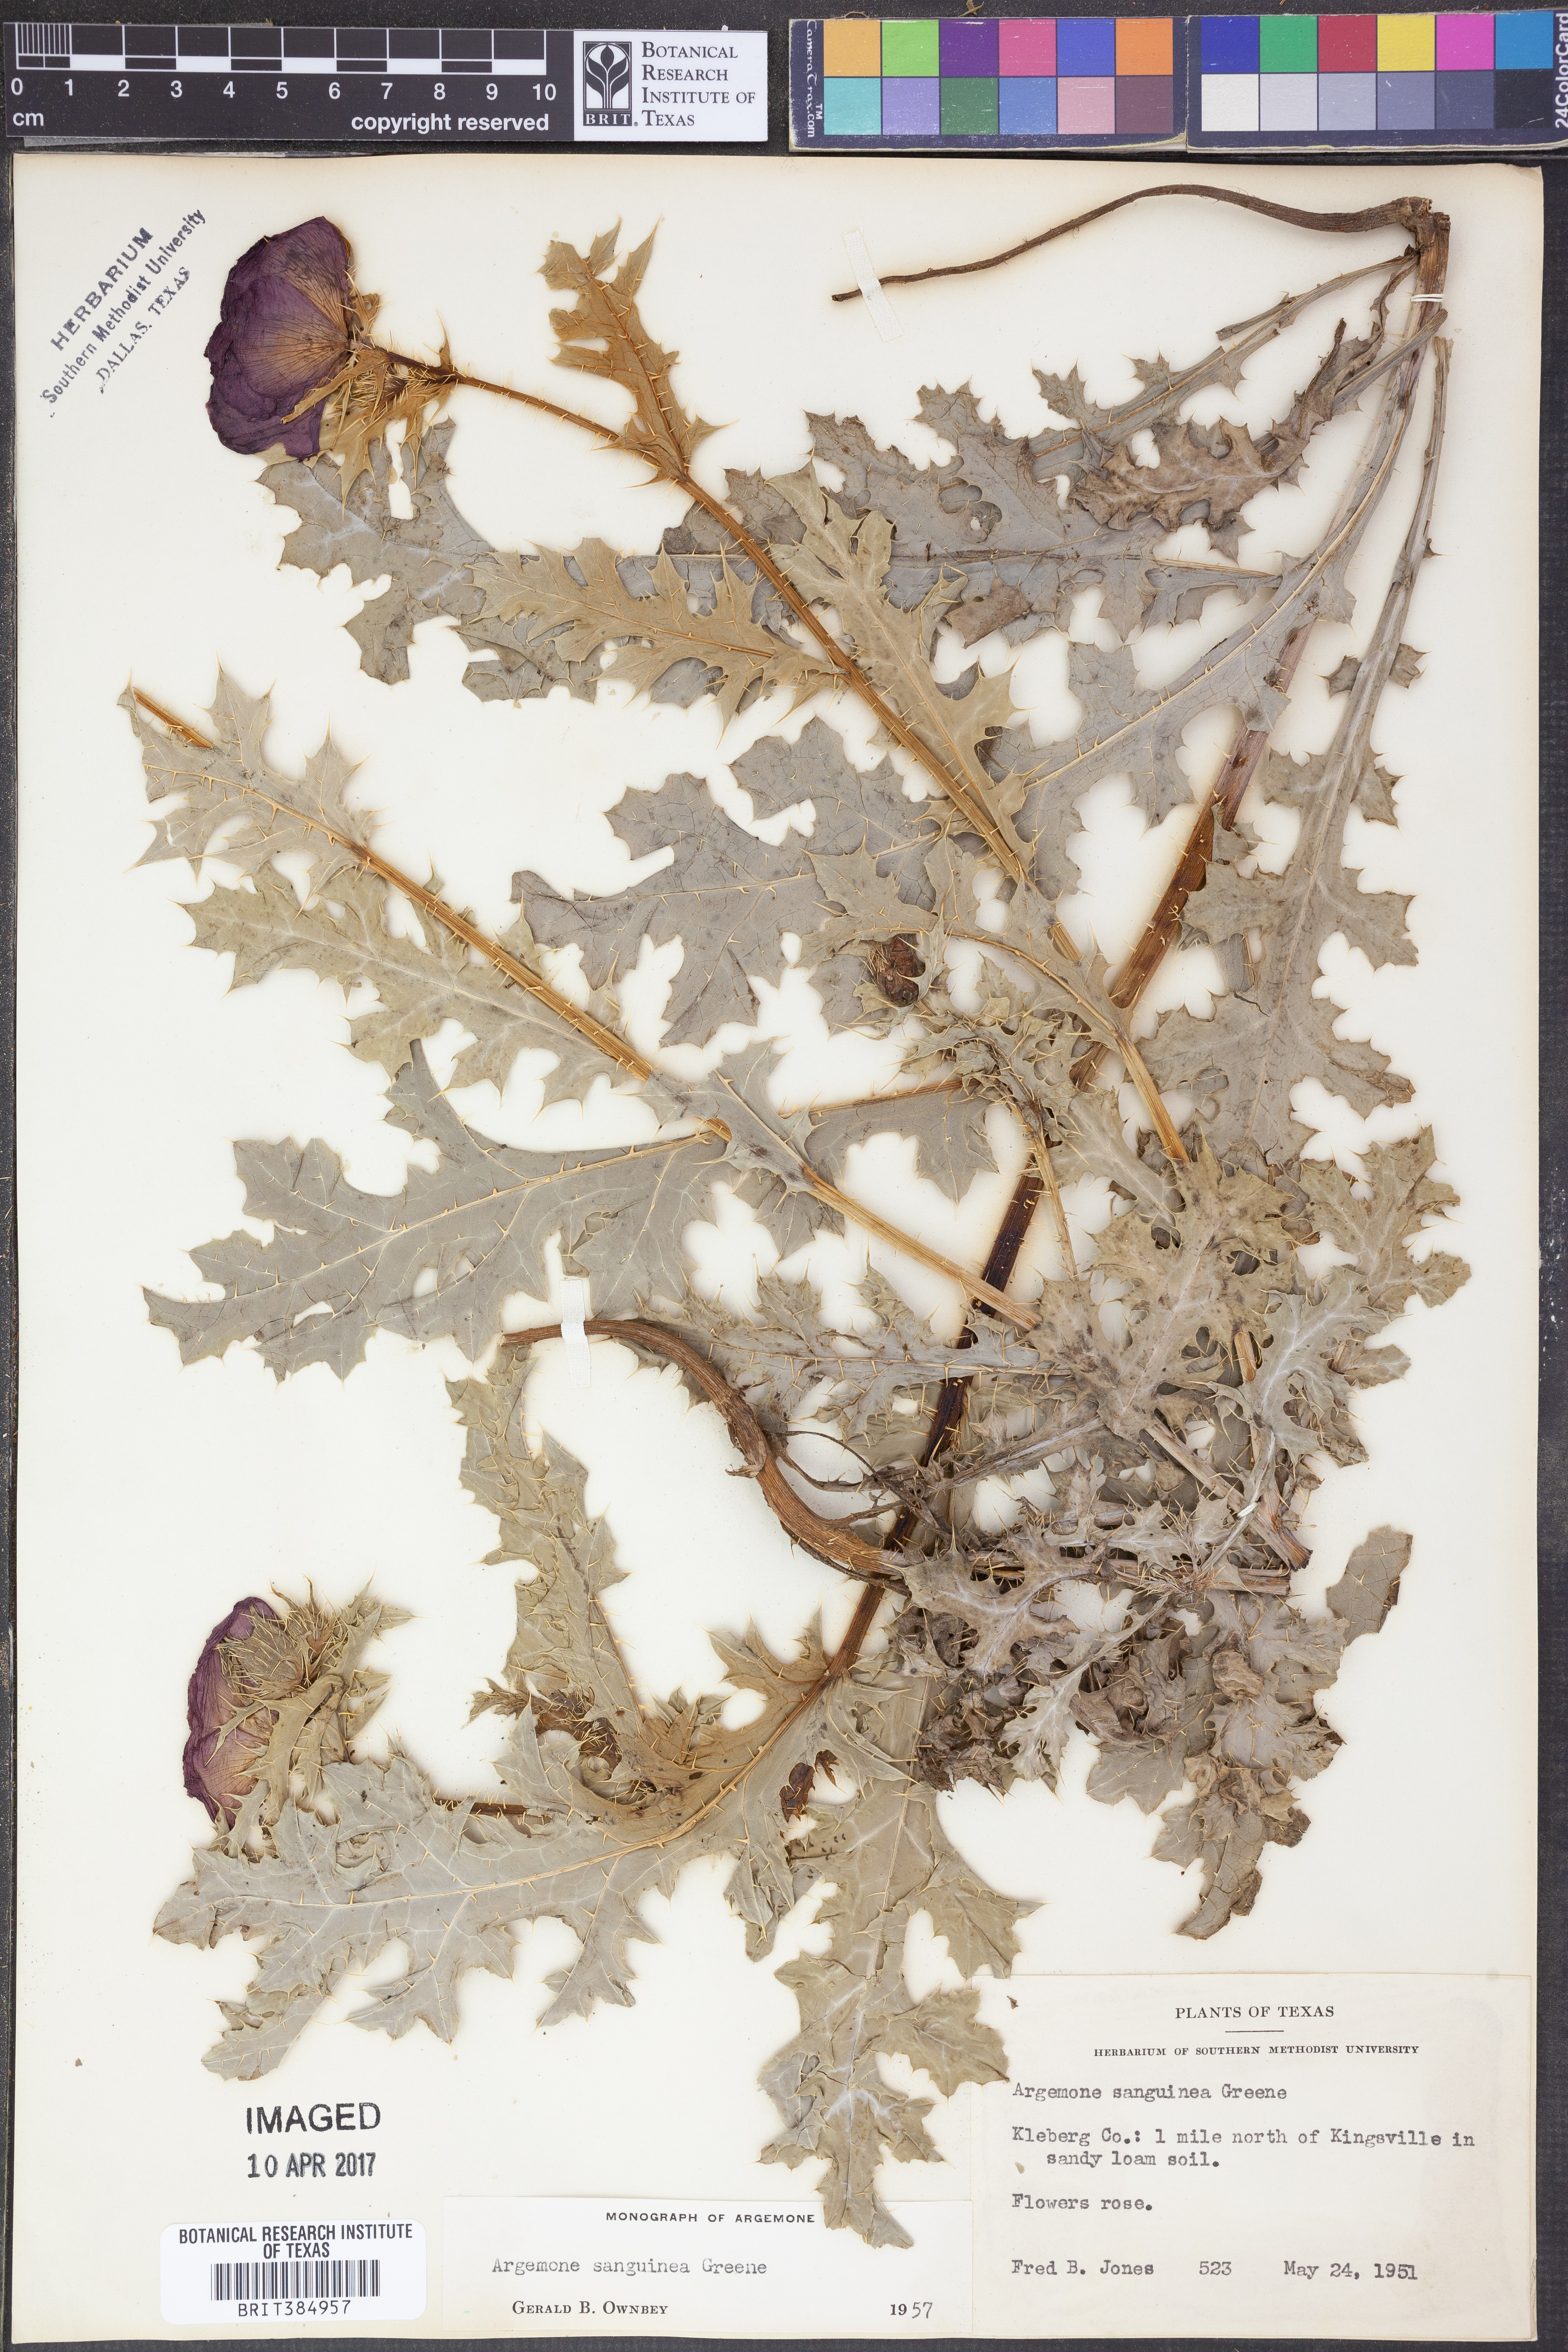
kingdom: Plantae
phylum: Tracheophyta
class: Magnoliopsida
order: Ranunculales
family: Papaveraceae
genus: Argemone
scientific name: Argemone sanguinea
